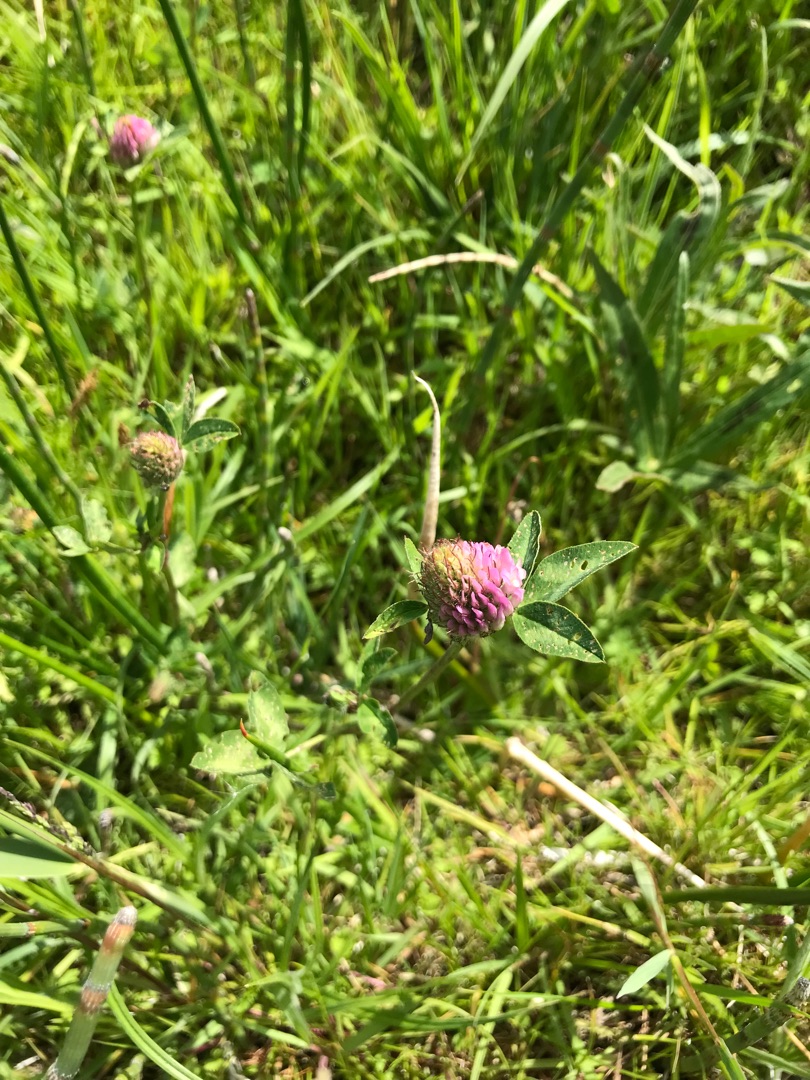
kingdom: Plantae
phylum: Tracheophyta
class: Magnoliopsida
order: Fabales
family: Fabaceae
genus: Trifolium
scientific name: Trifolium pratense
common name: Rød-kløver
